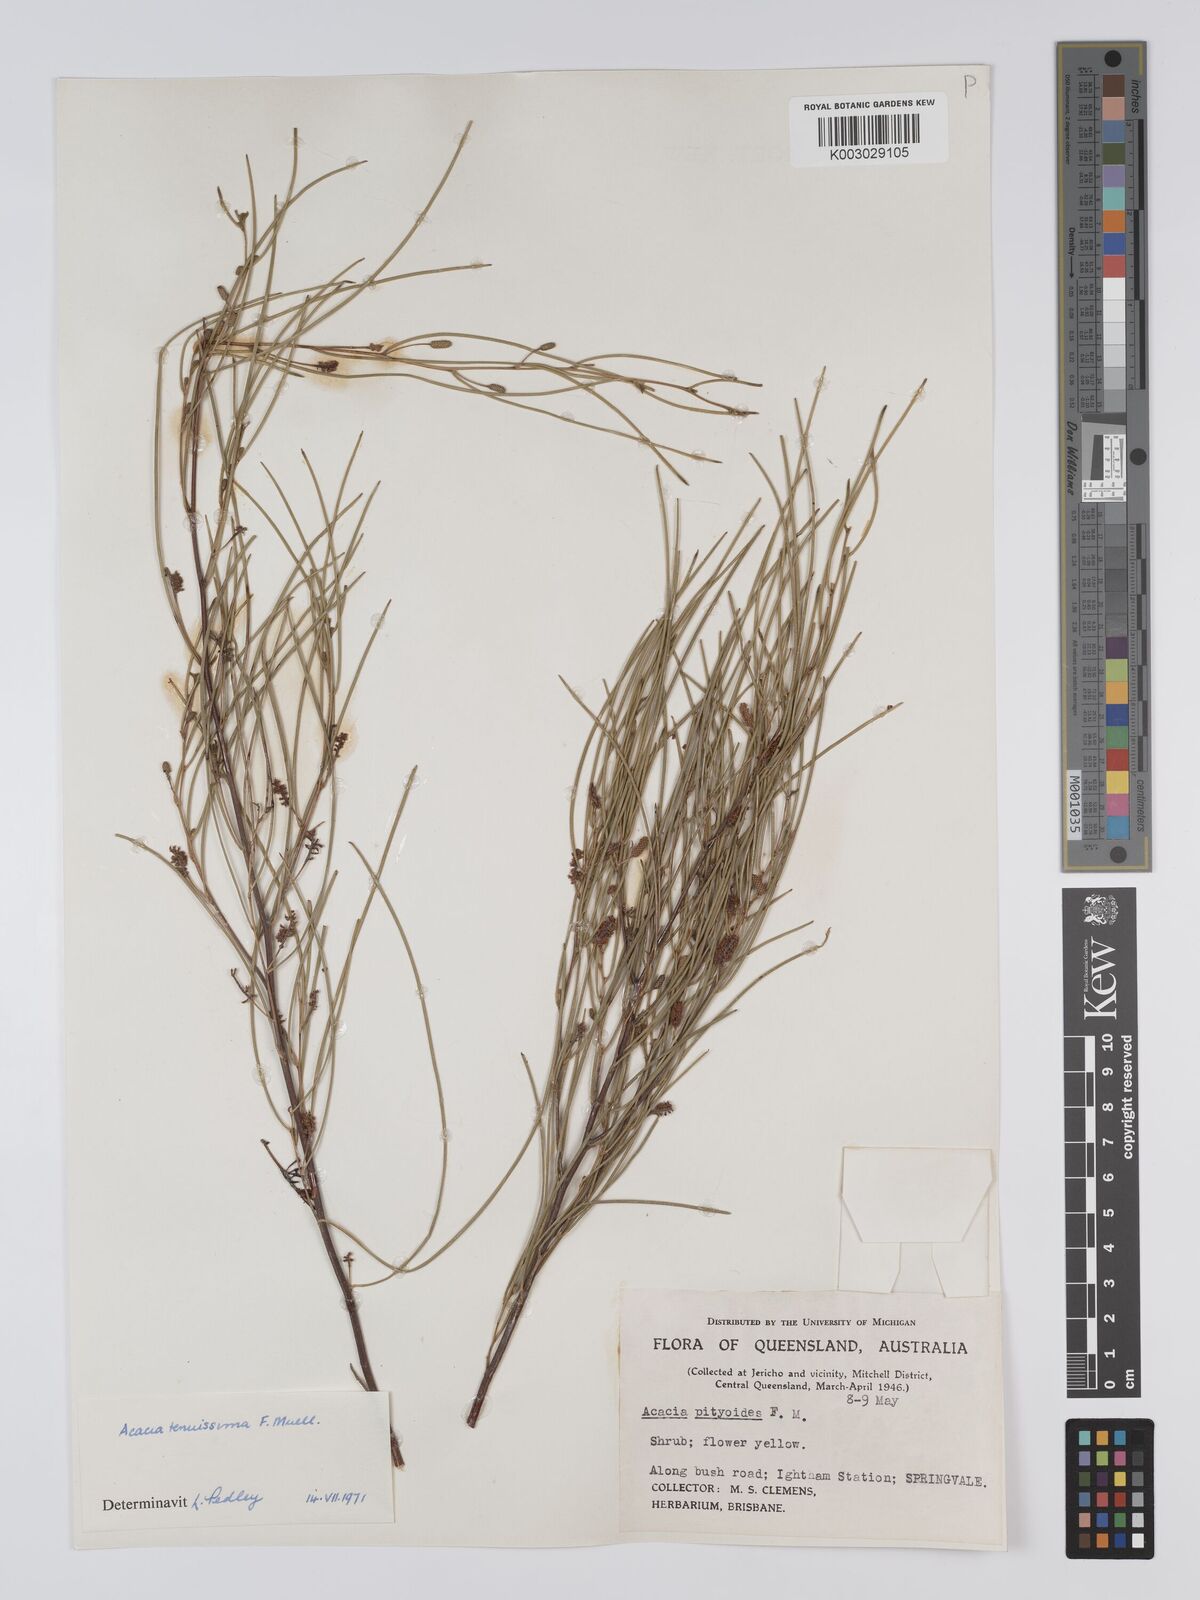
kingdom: Plantae
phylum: Tracheophyta
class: Magnoliopsida
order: Fabales
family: Fabaceae
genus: Acacia
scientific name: Acacia tenuissima
